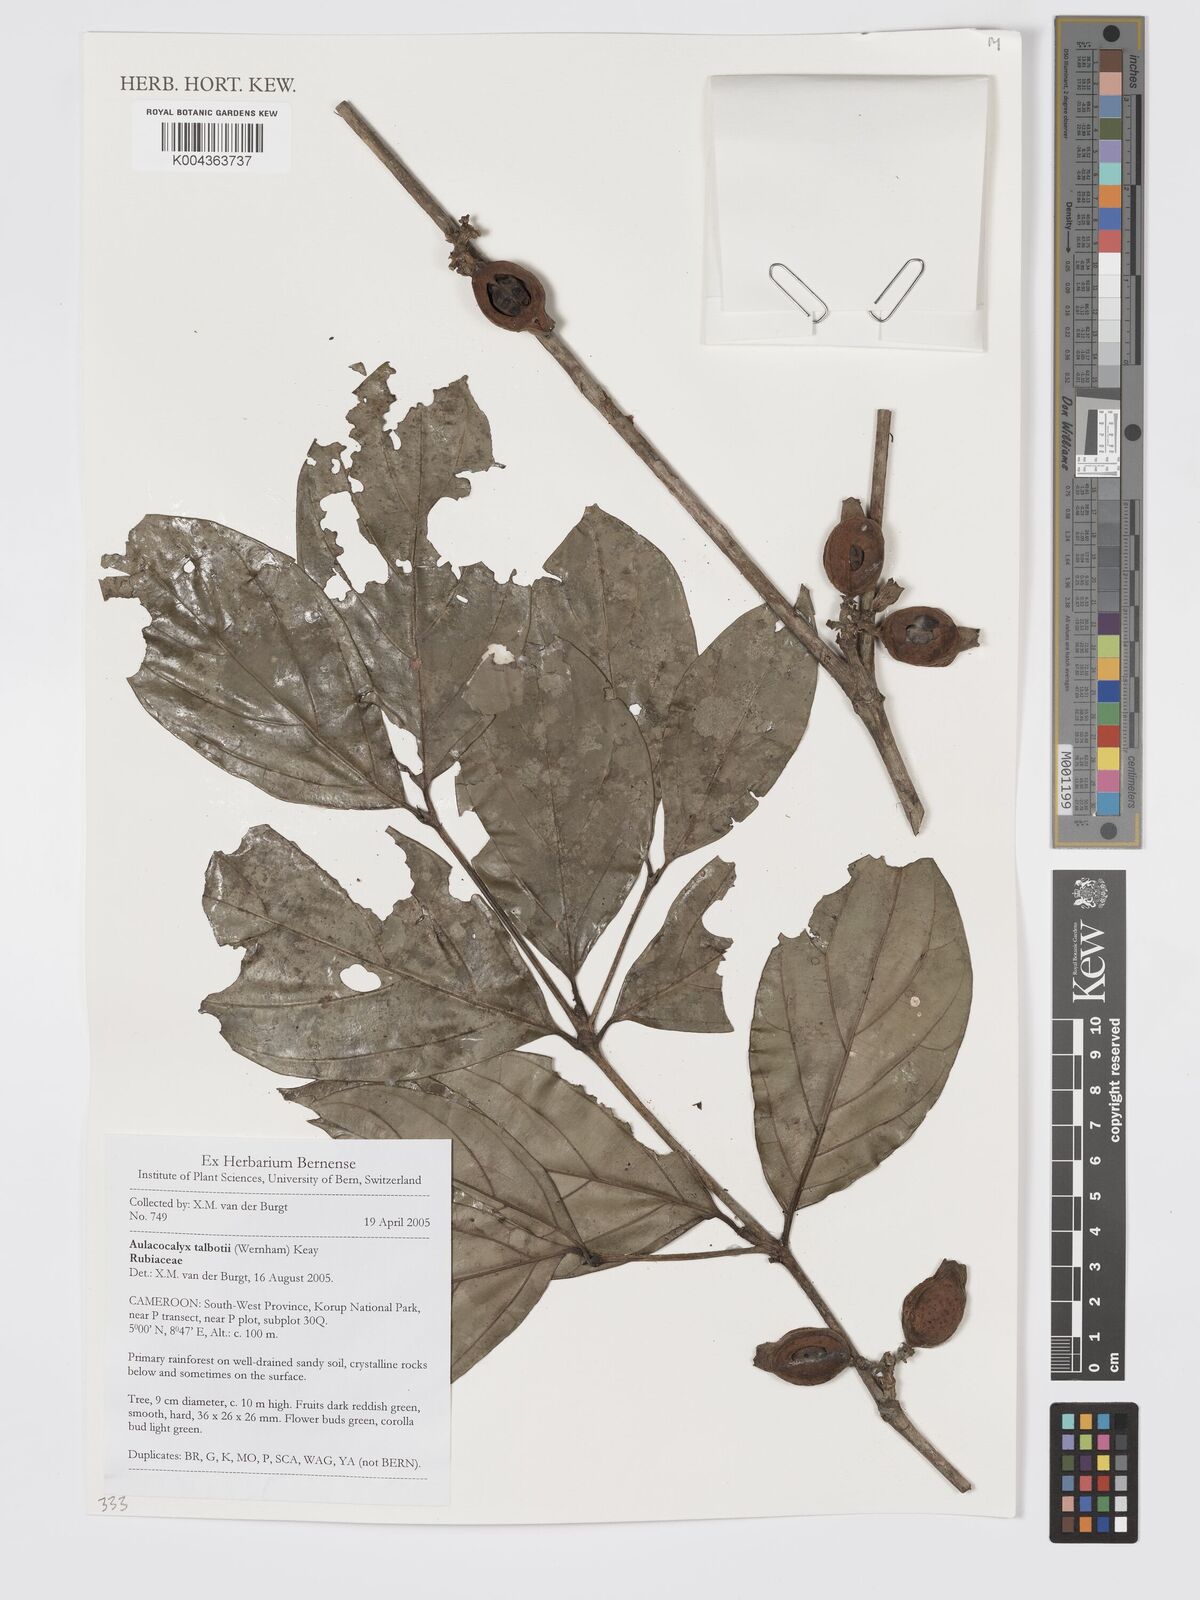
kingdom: Plantae
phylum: Tracheophyta
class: Magnoliopsida
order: Gentianales
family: Rubiaceae
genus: Aulacocalyx
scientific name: Aulacocalyx talbotii
